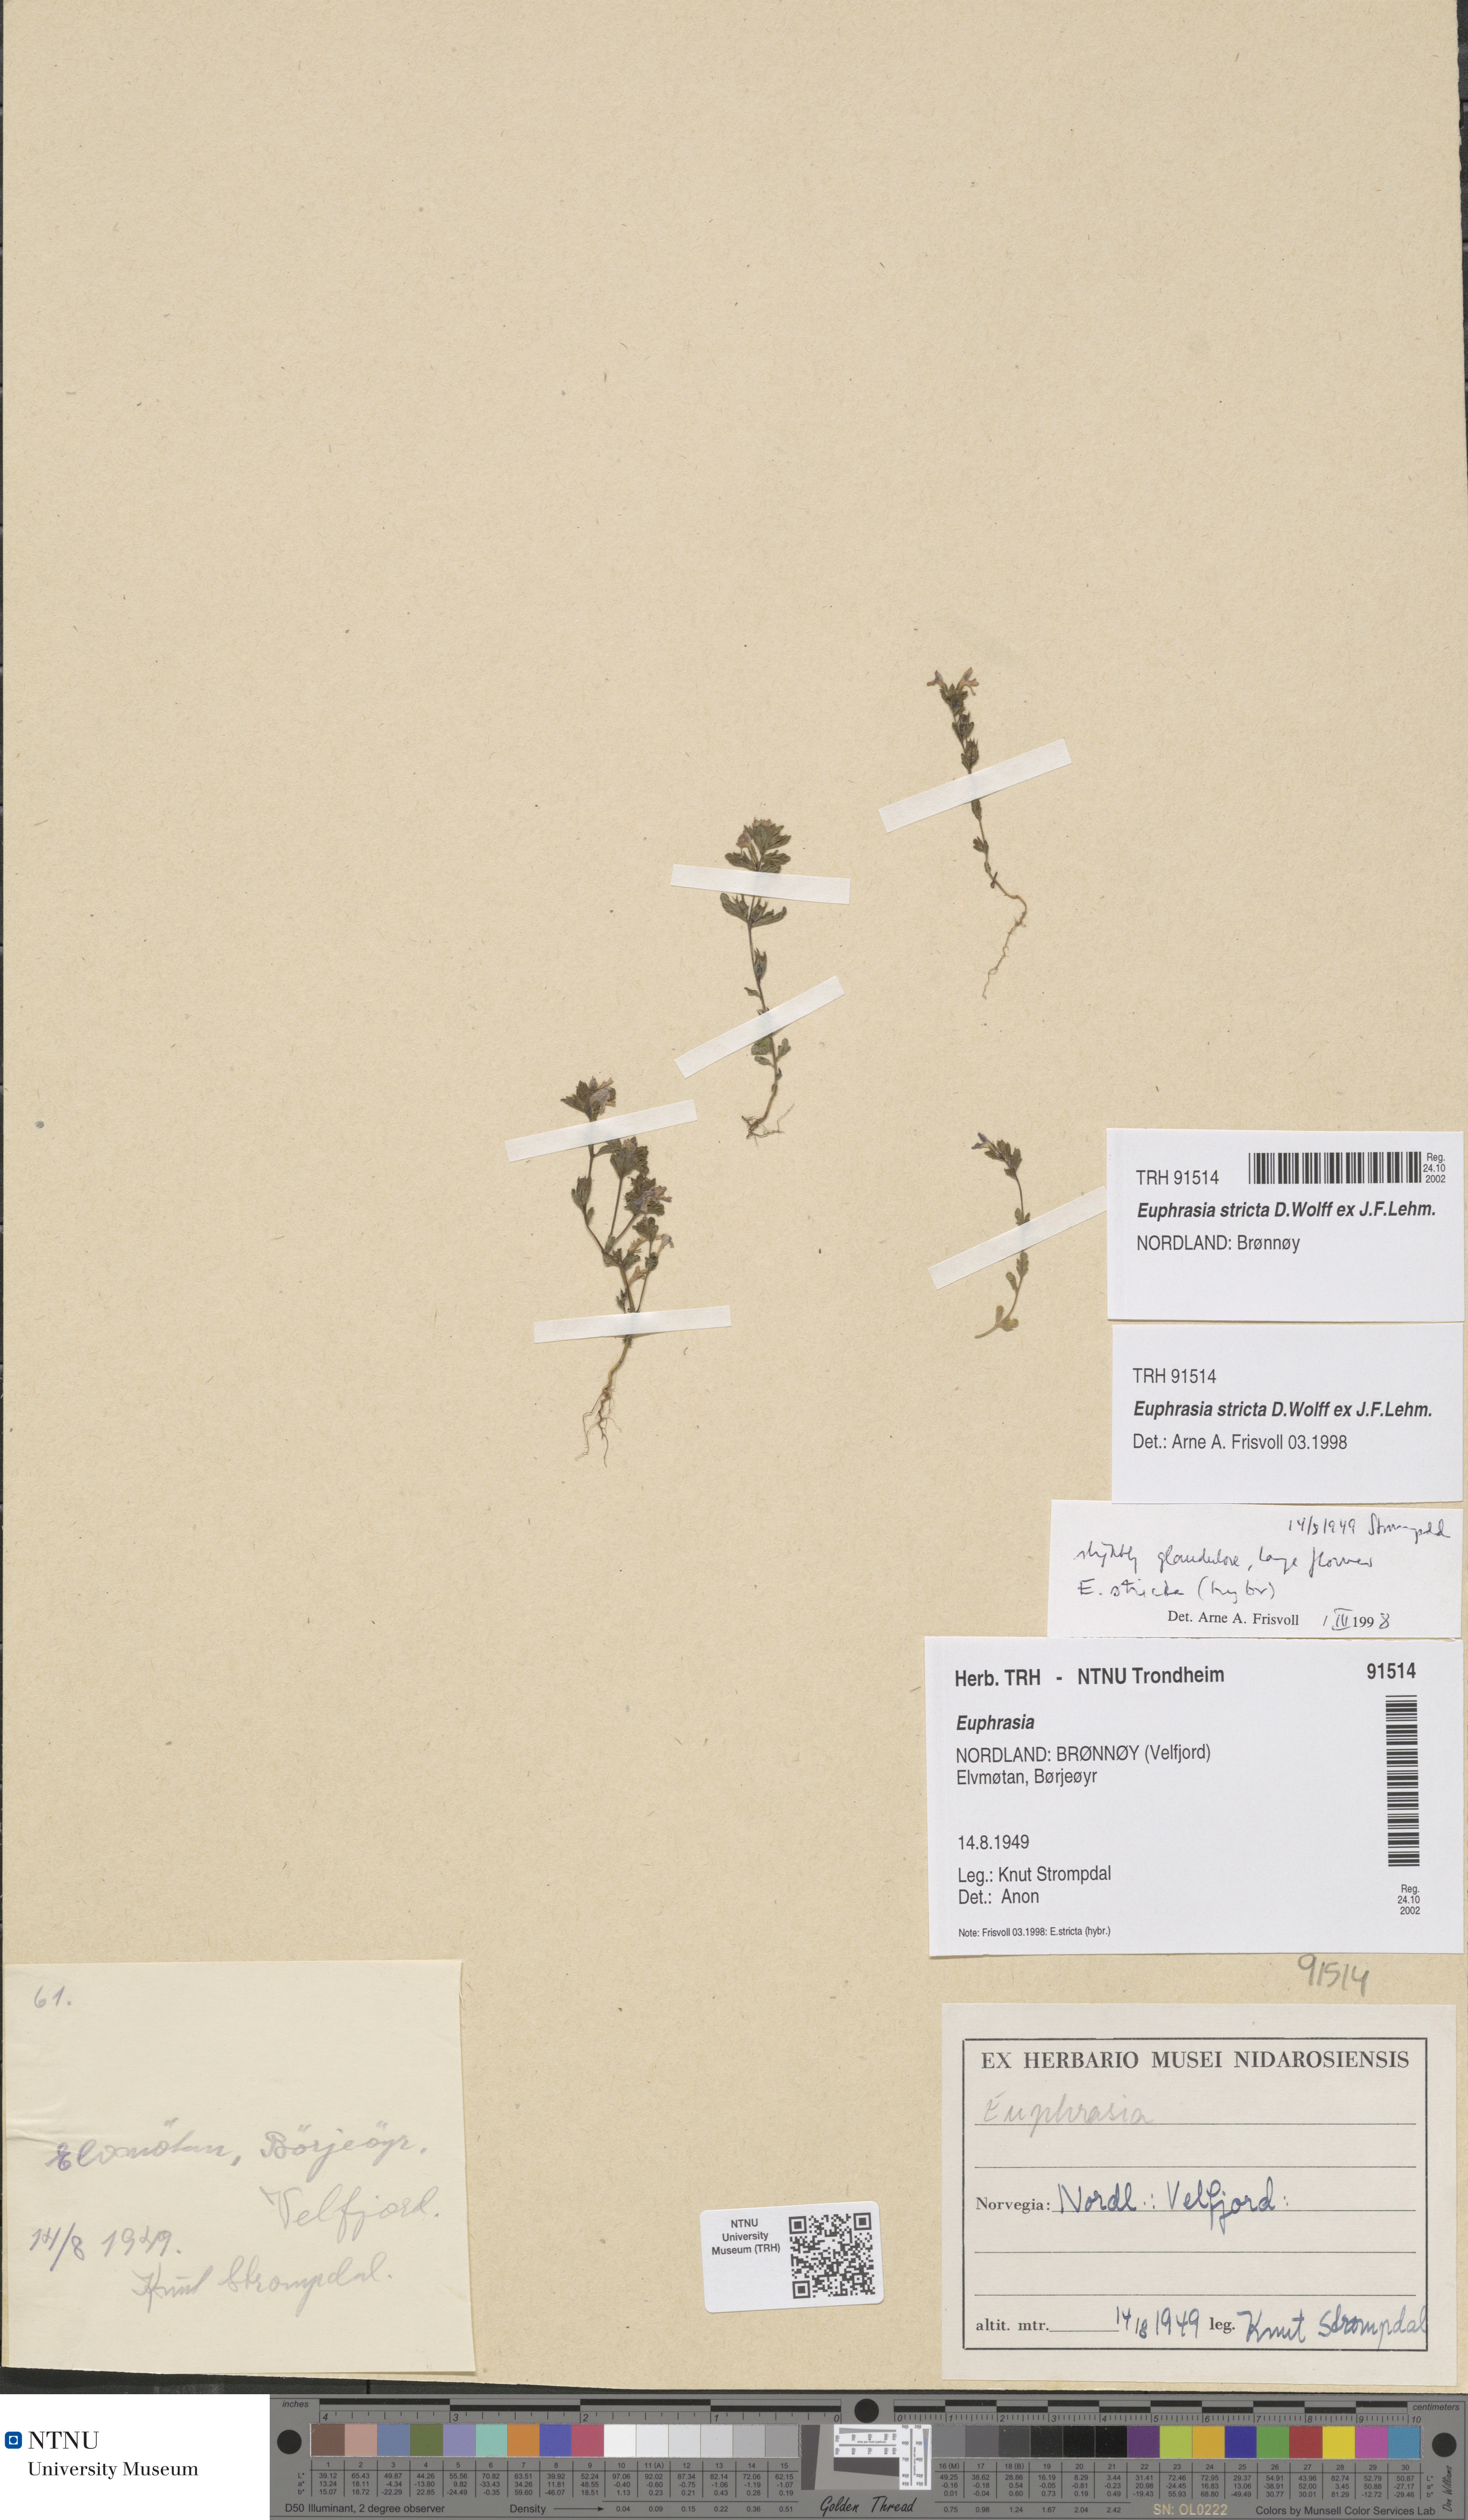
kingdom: Plantae
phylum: Tracheophyta
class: Magnoliopsida
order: Lamiales
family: Orobanchaceae
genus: Euphrasia
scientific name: Euphrasia stricta
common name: Drug eyebright
